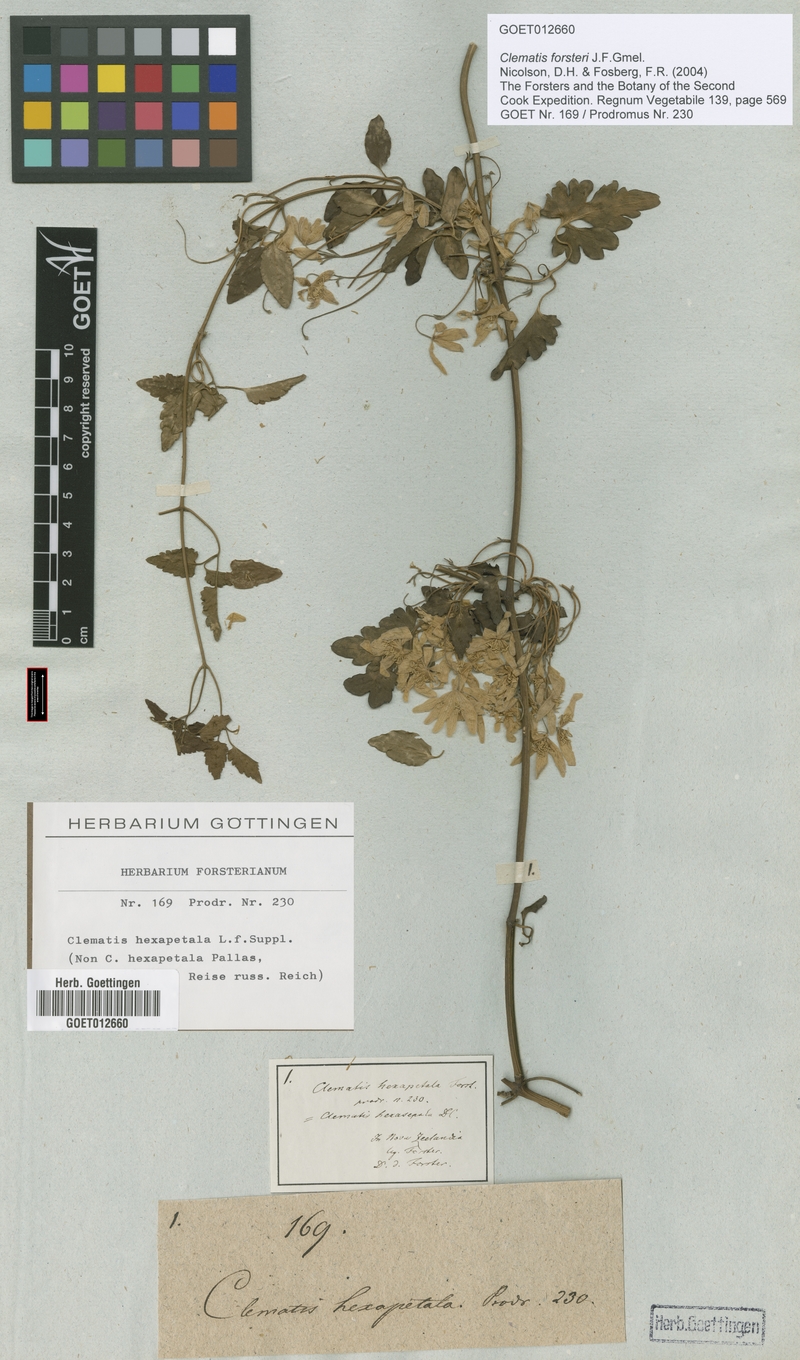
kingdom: Plantae
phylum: Tracheophyta
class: Magnoliopsida
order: Ranunculales
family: Ranunculaceae
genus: Clematis
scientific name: Clematis forsteri
